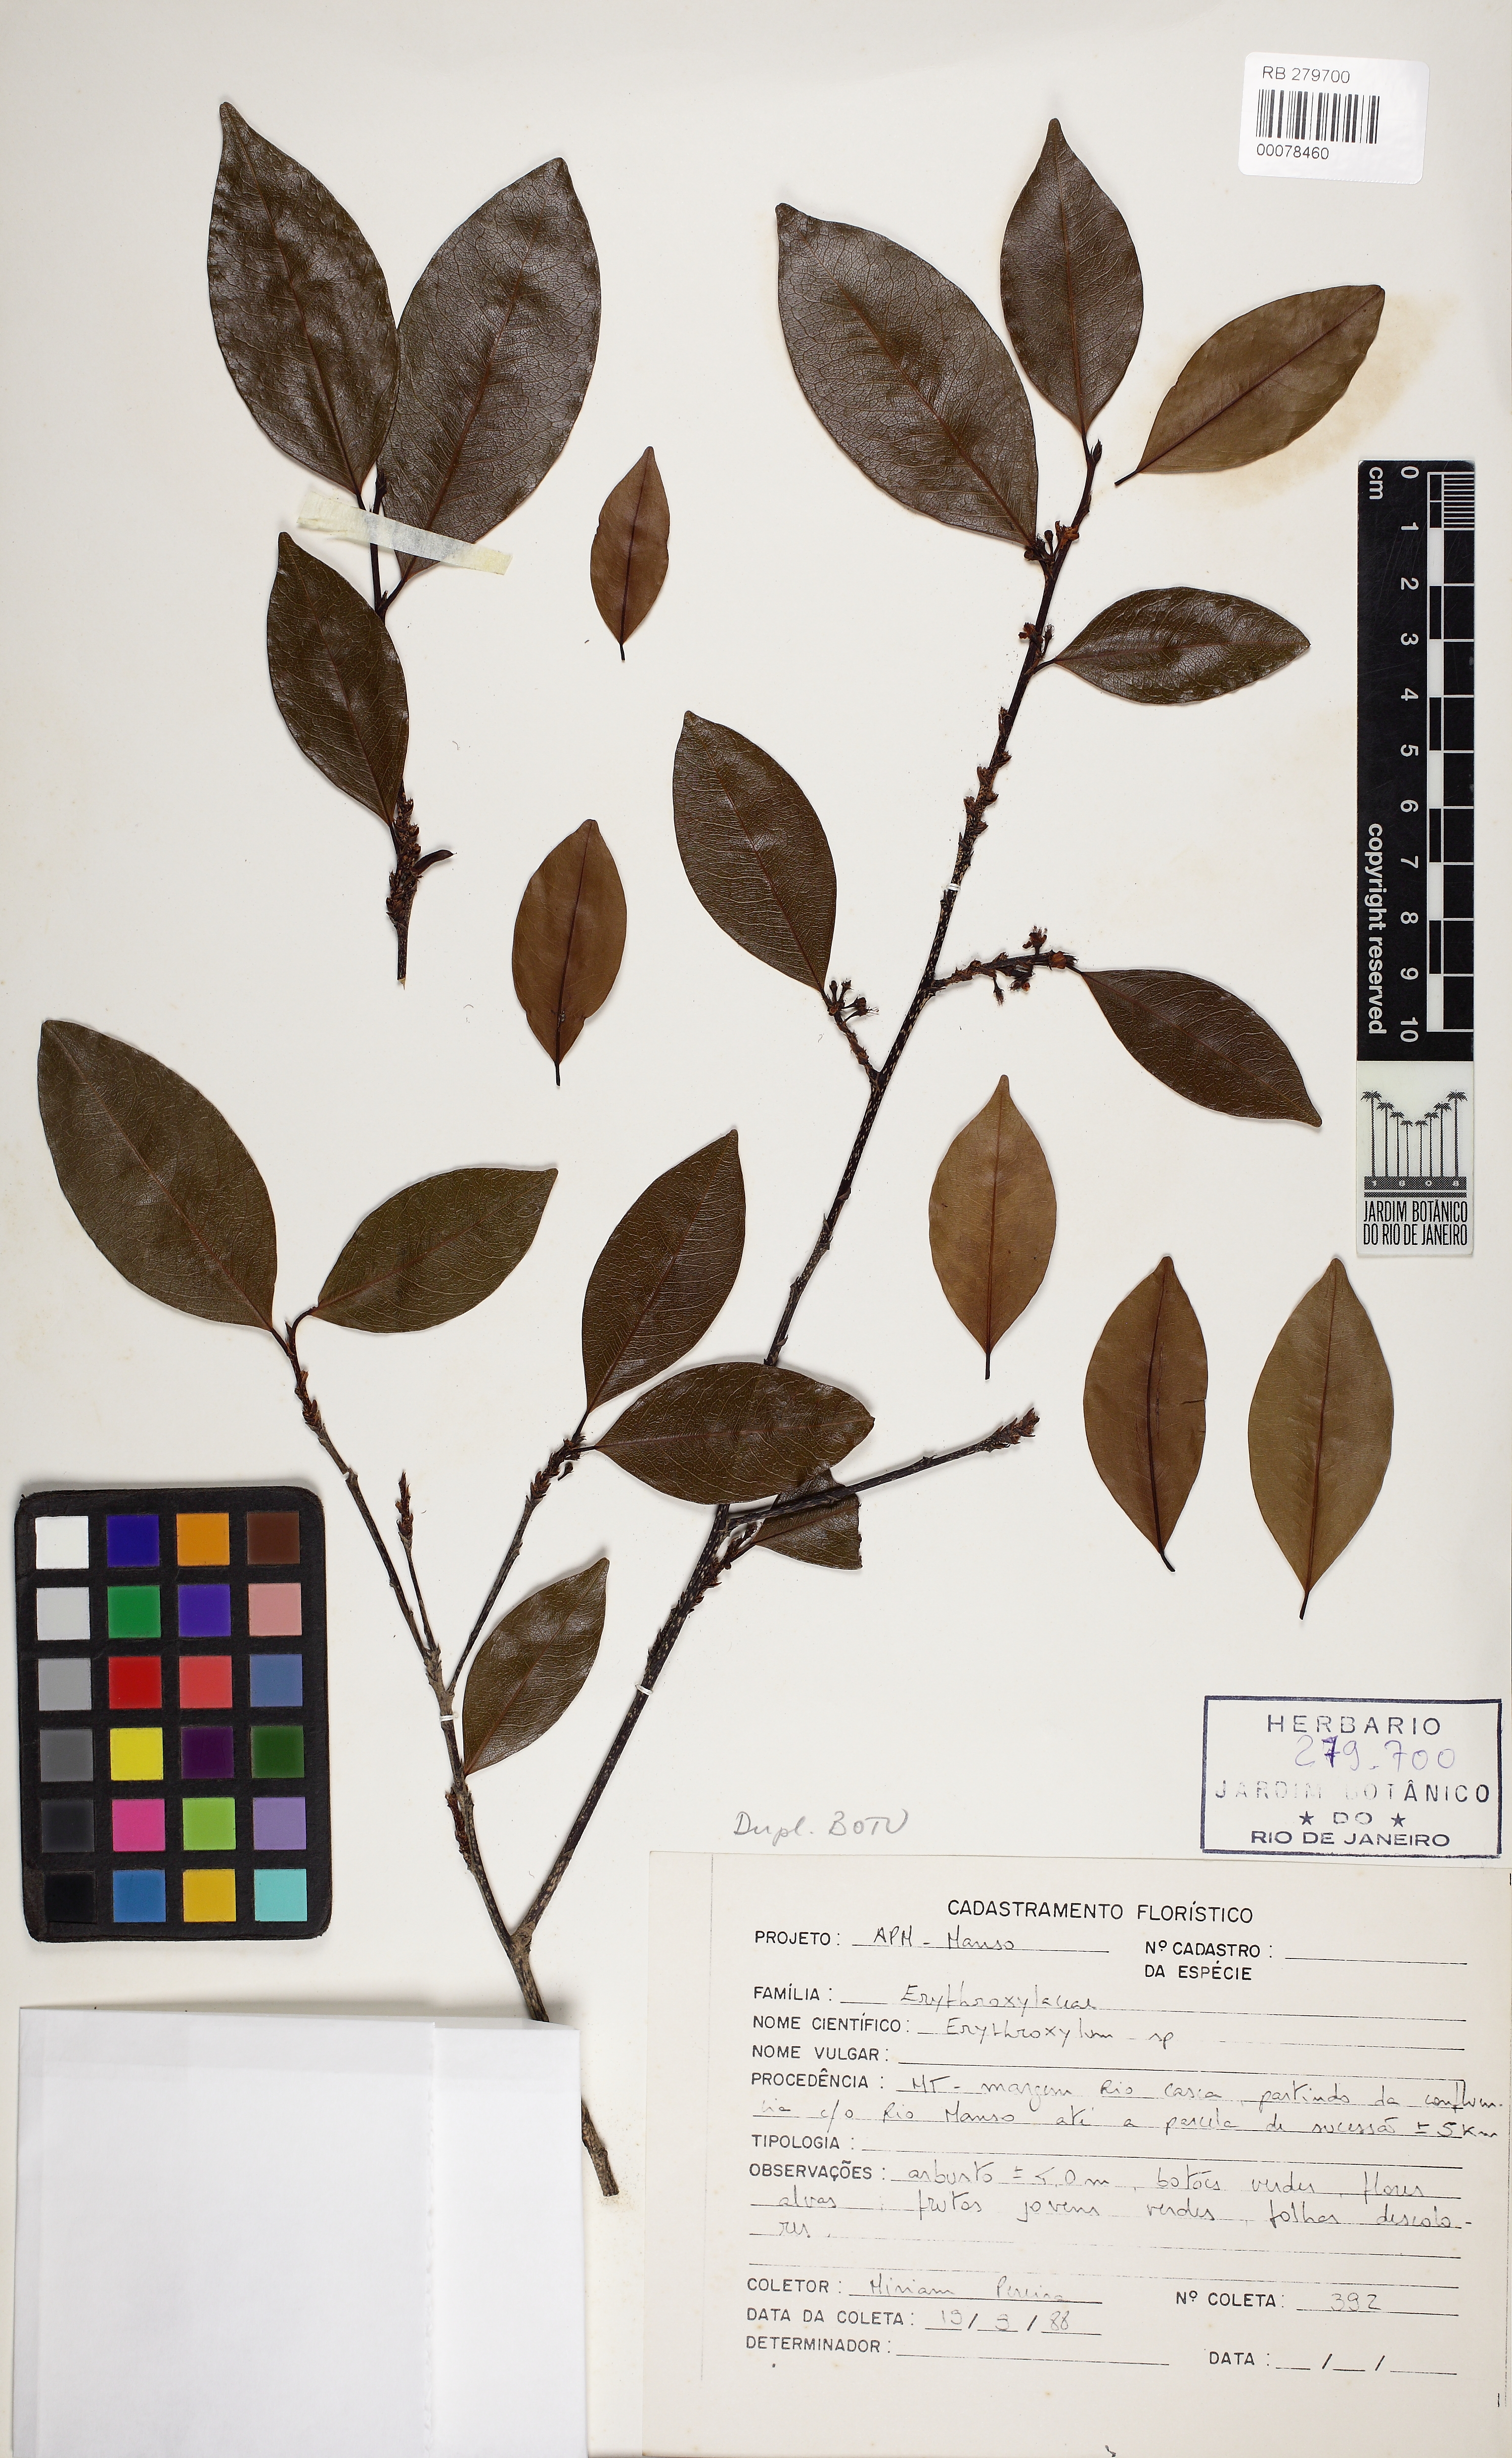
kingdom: Plantae
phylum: Tracheophyta
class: Magnoliopsida
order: Malpighiales
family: Erythroxylaceae
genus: Erythroxylum
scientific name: Erythroxylum anguifugum
